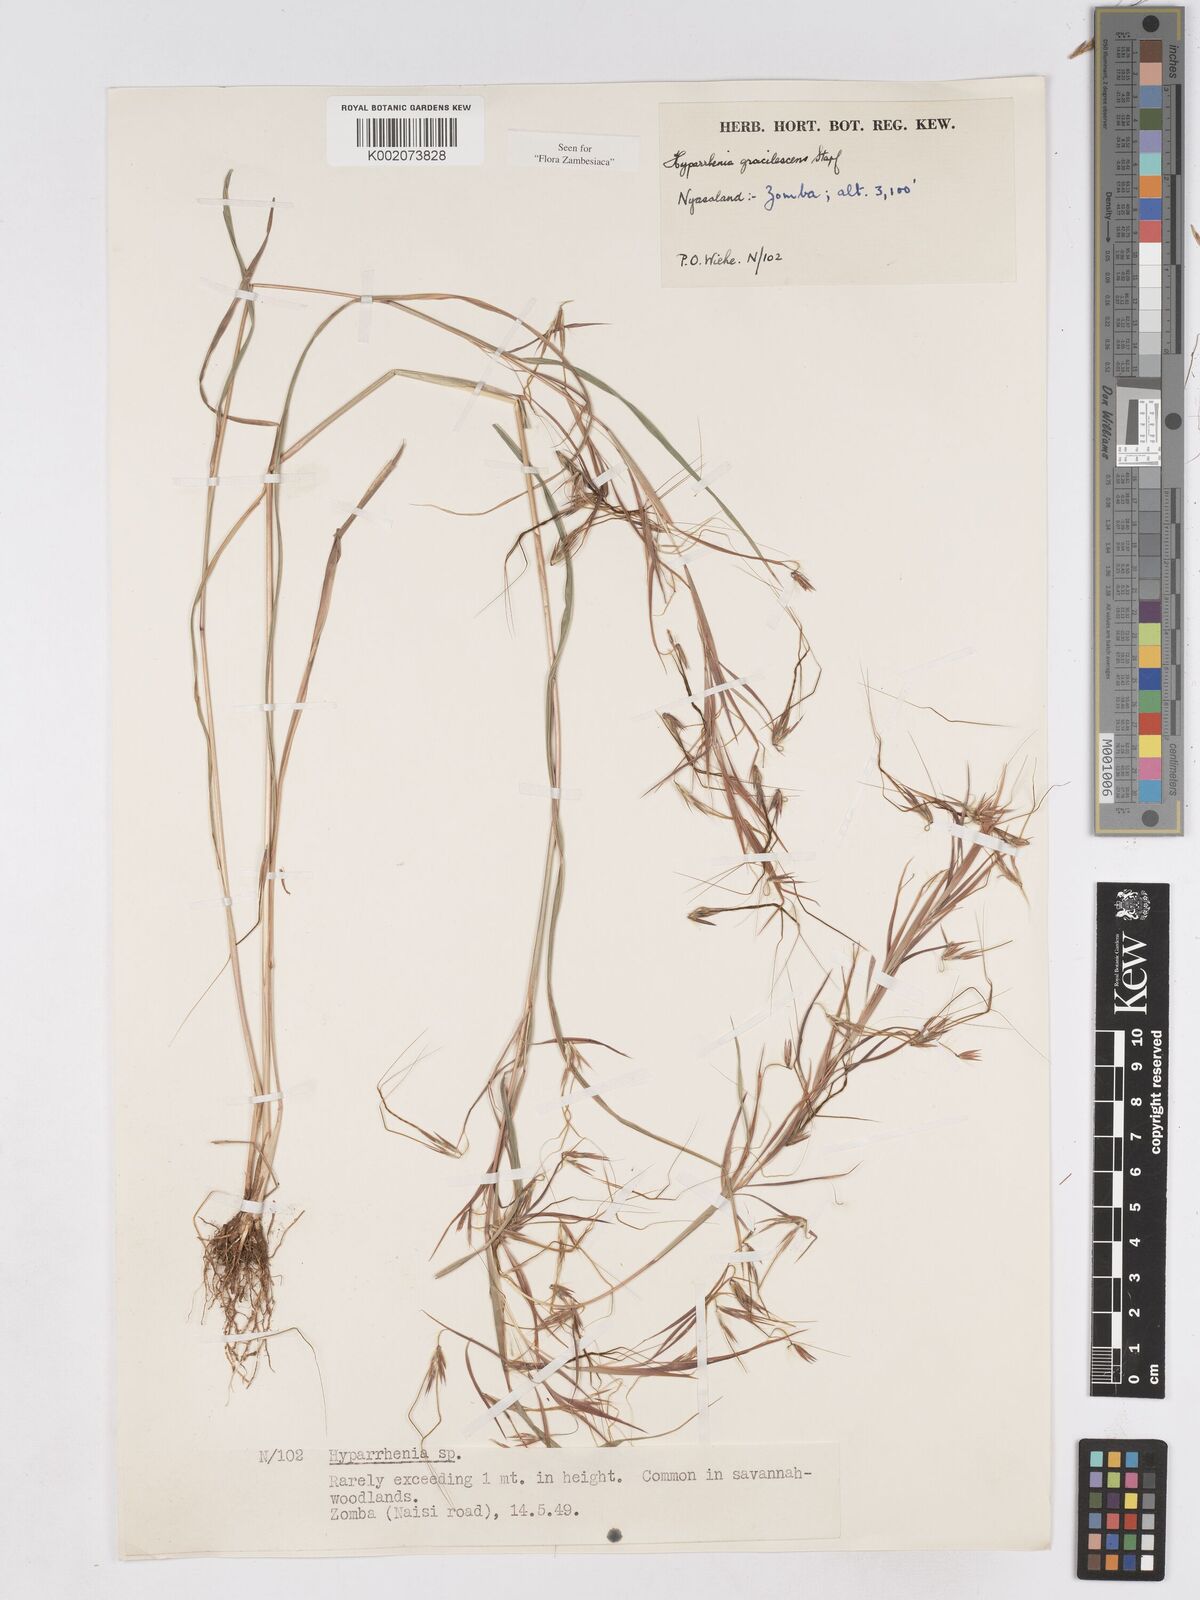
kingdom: Plantae
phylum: Tracheophyta
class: Liliopsida
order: Poales
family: Poaceae
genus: Hyparrhenia
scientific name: Hyparrhenia welwitschii
